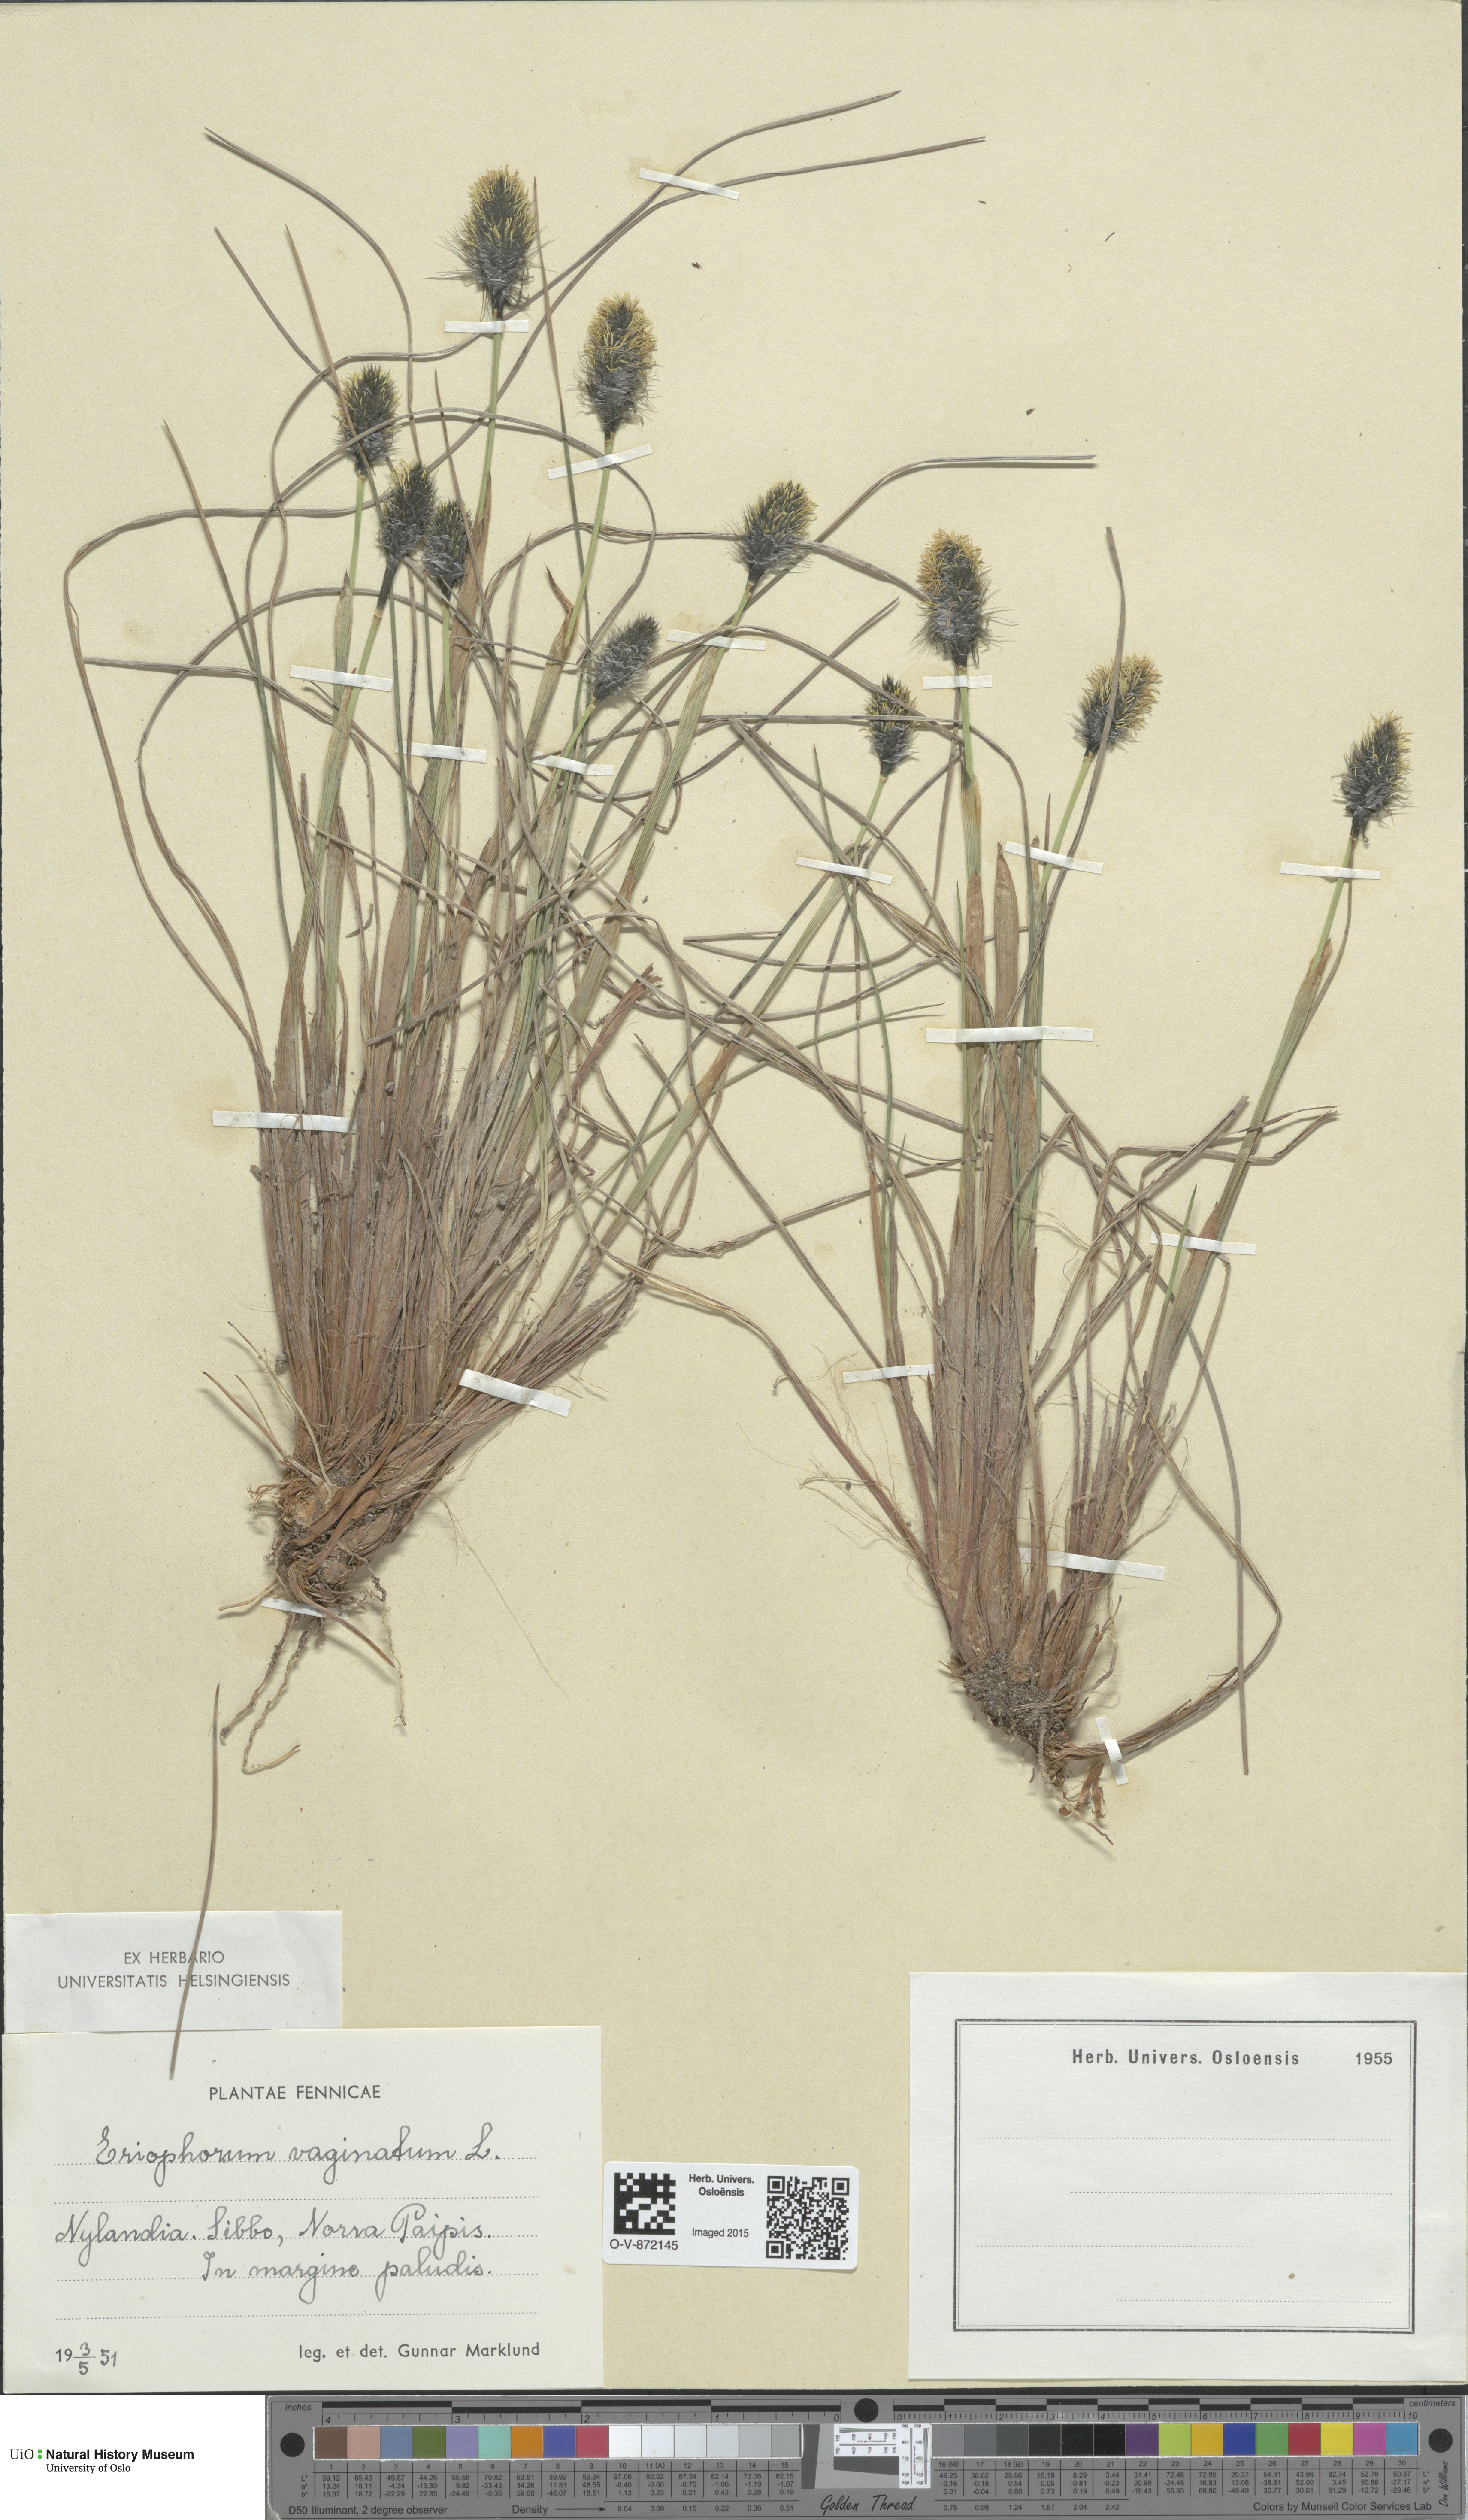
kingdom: Plantae
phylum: Tracheophyta
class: Liliopsida
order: Poales
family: Cyperaceae
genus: Eriophorum
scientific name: Eriophorum vaginatum
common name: Hare's-tail cottongrass
